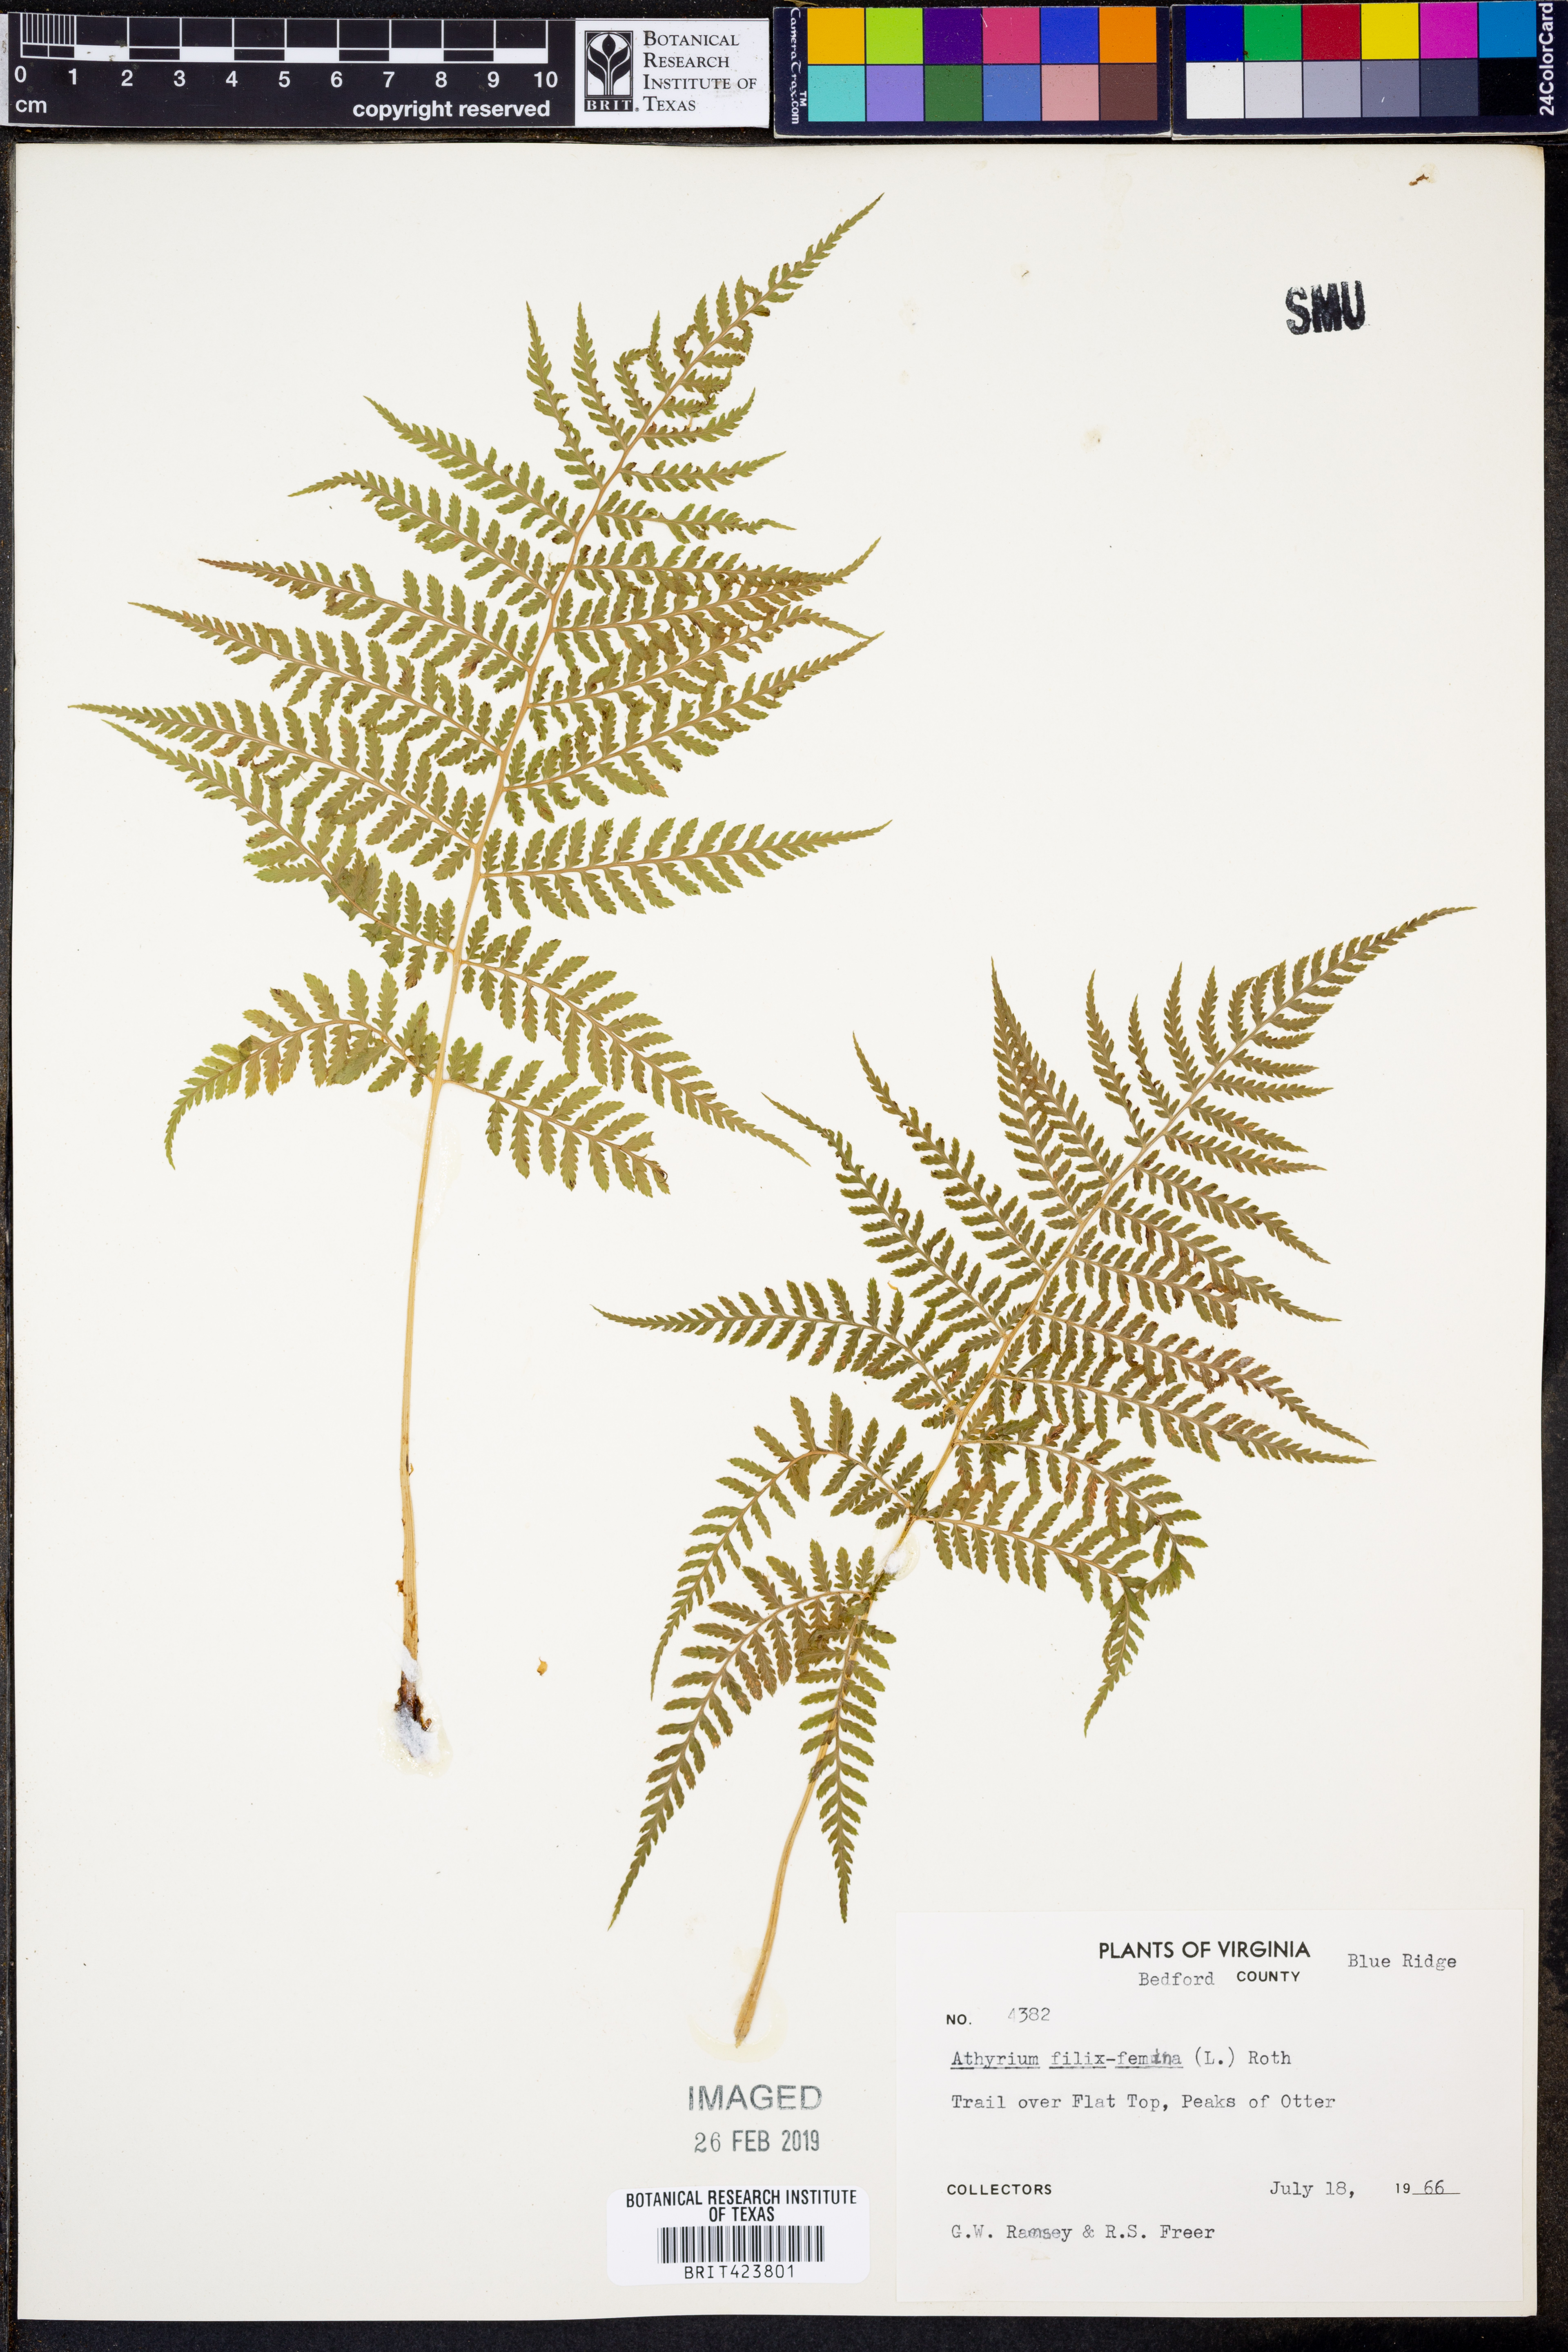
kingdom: Plantae
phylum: Tracheophyta
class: Polypodiopsida
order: Polypodiales
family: Athyriaceae
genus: Athyrium
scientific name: Athyrium filix-femina
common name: Lady fern
